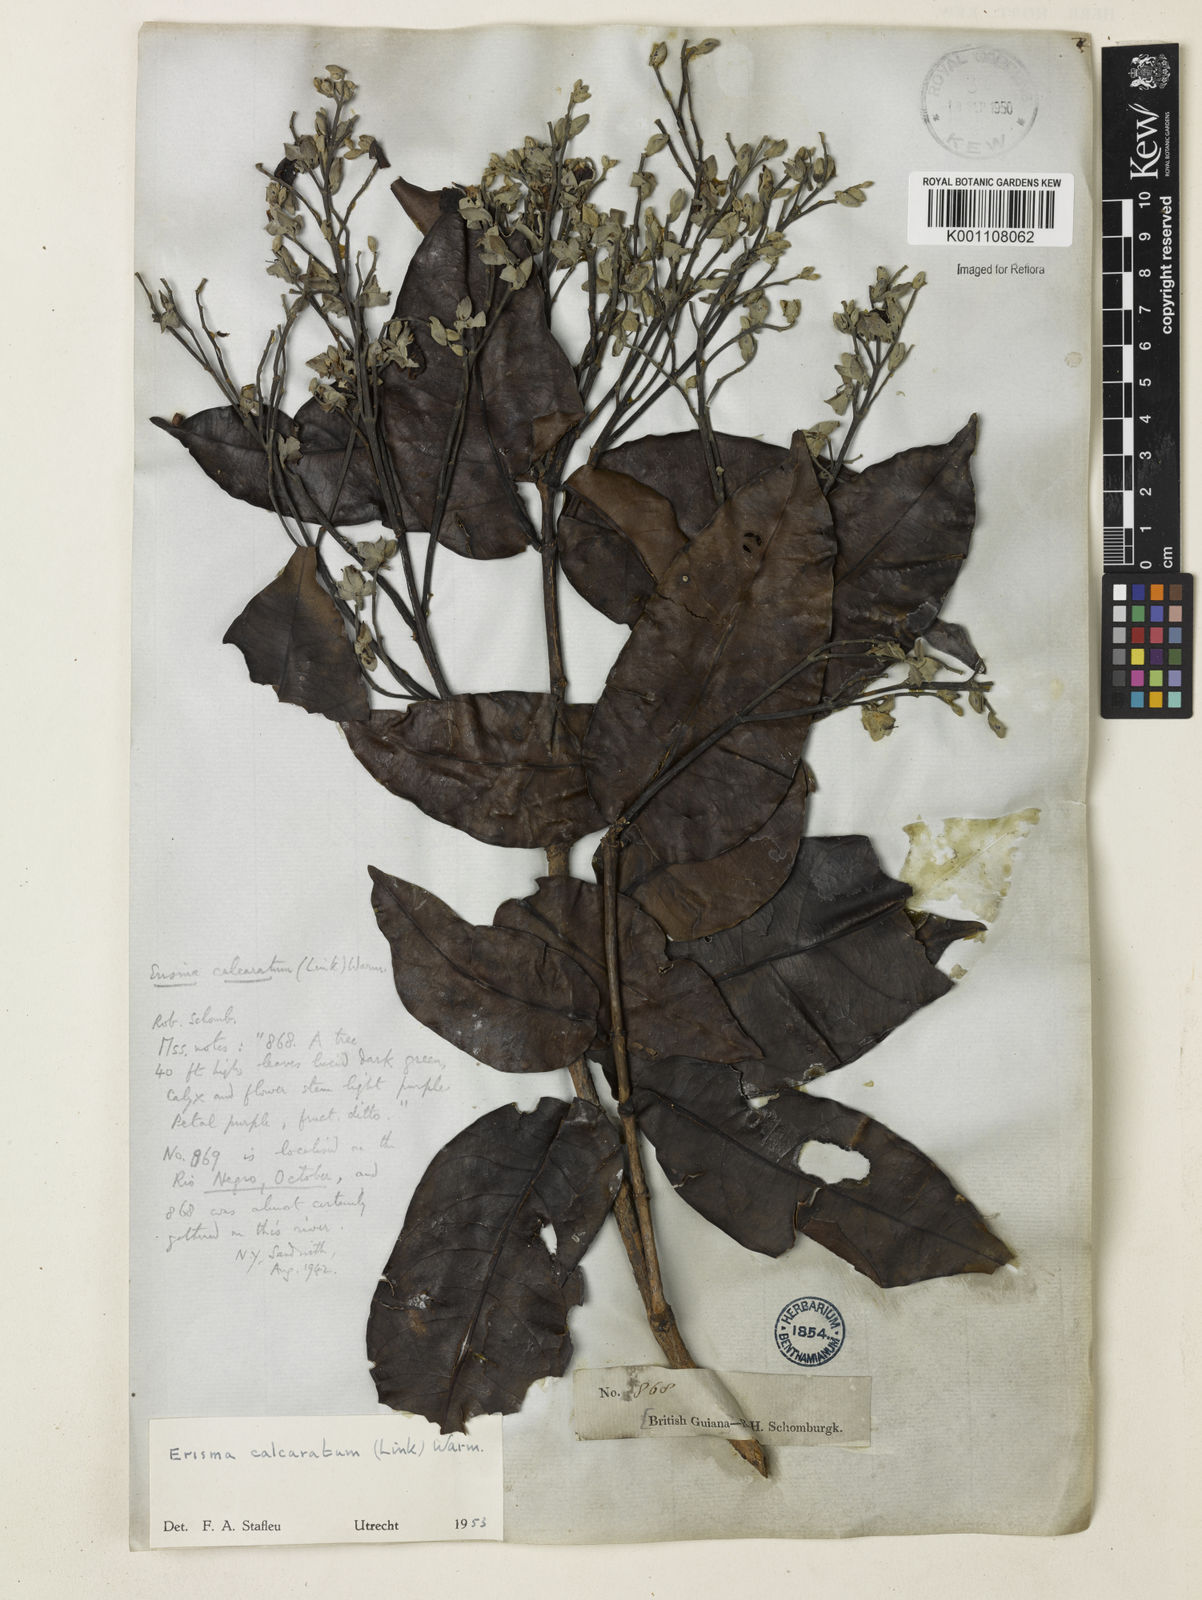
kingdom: Plantae
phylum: Tracheophyta
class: Magnoliopsida
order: Myrtales
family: Vochysiaceae
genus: Erisma
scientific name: Erisma calcaratum
